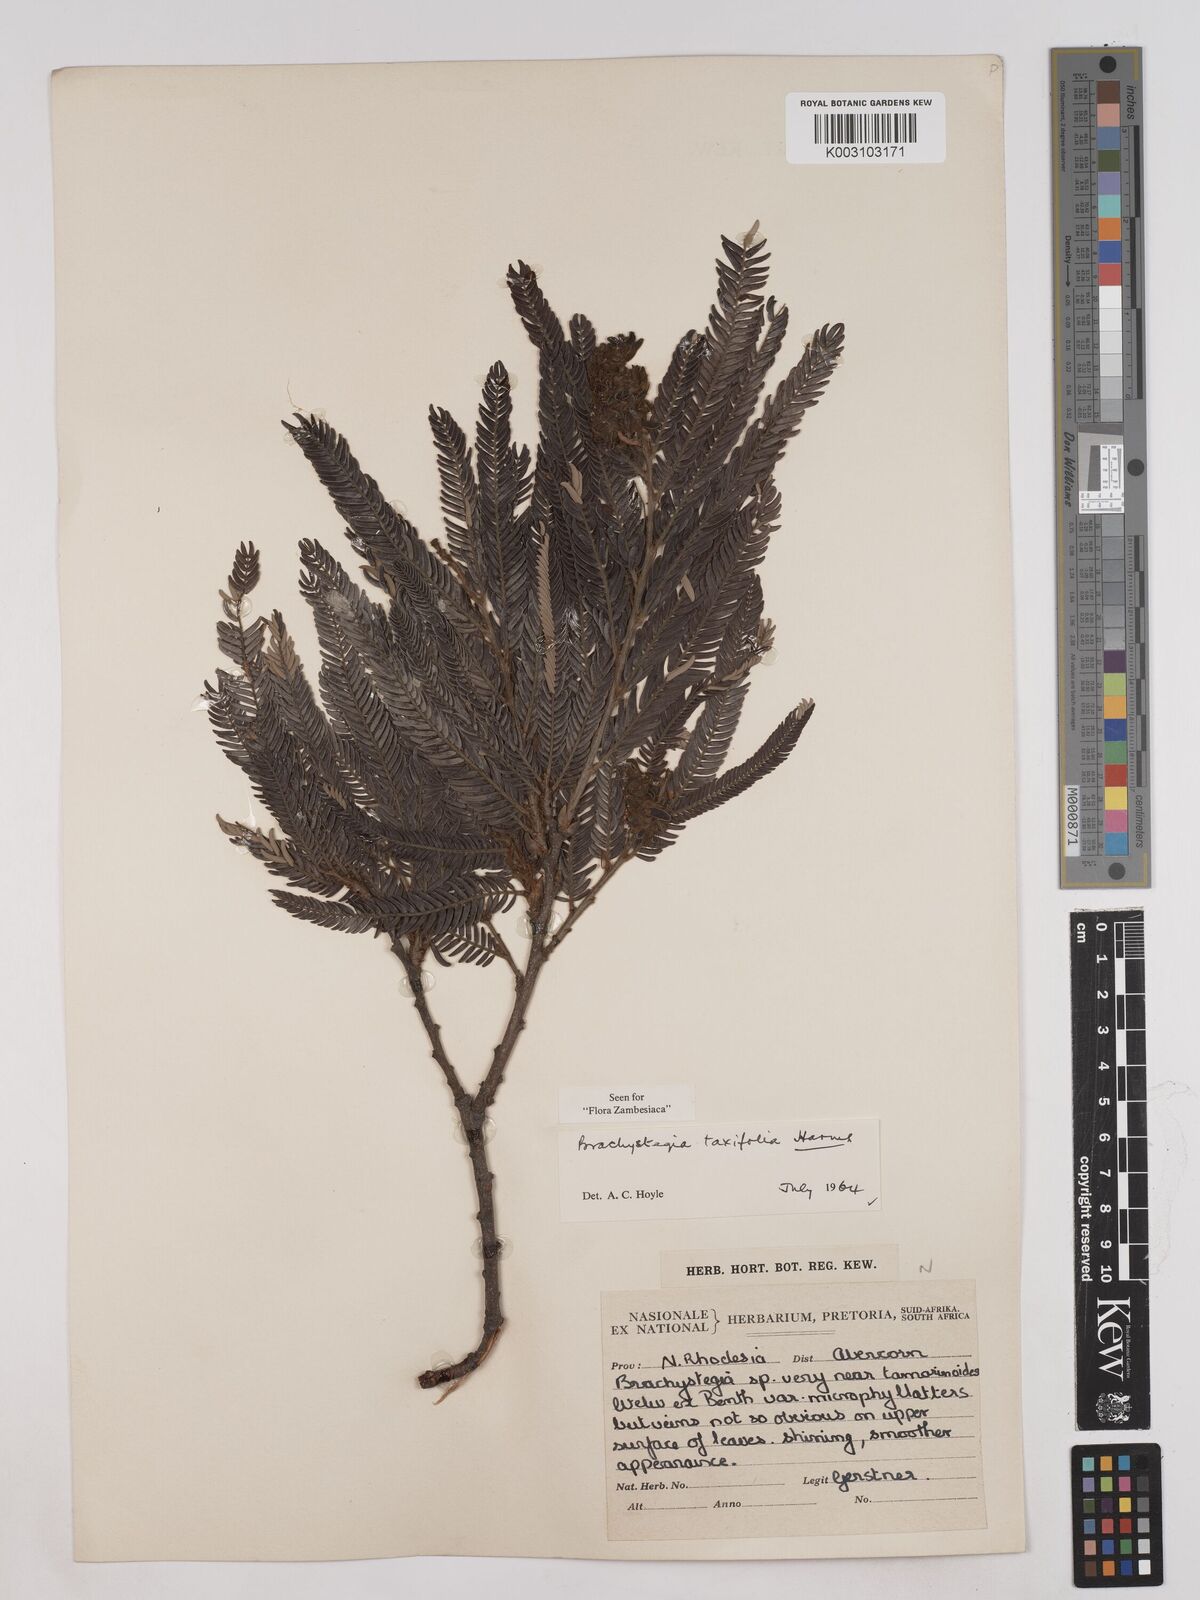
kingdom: Plantae
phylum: Tracheophyta
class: Magnoliopsida
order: Fabales
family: Fabaceae
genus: Brachystegia
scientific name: Brachystegia taxifolia
